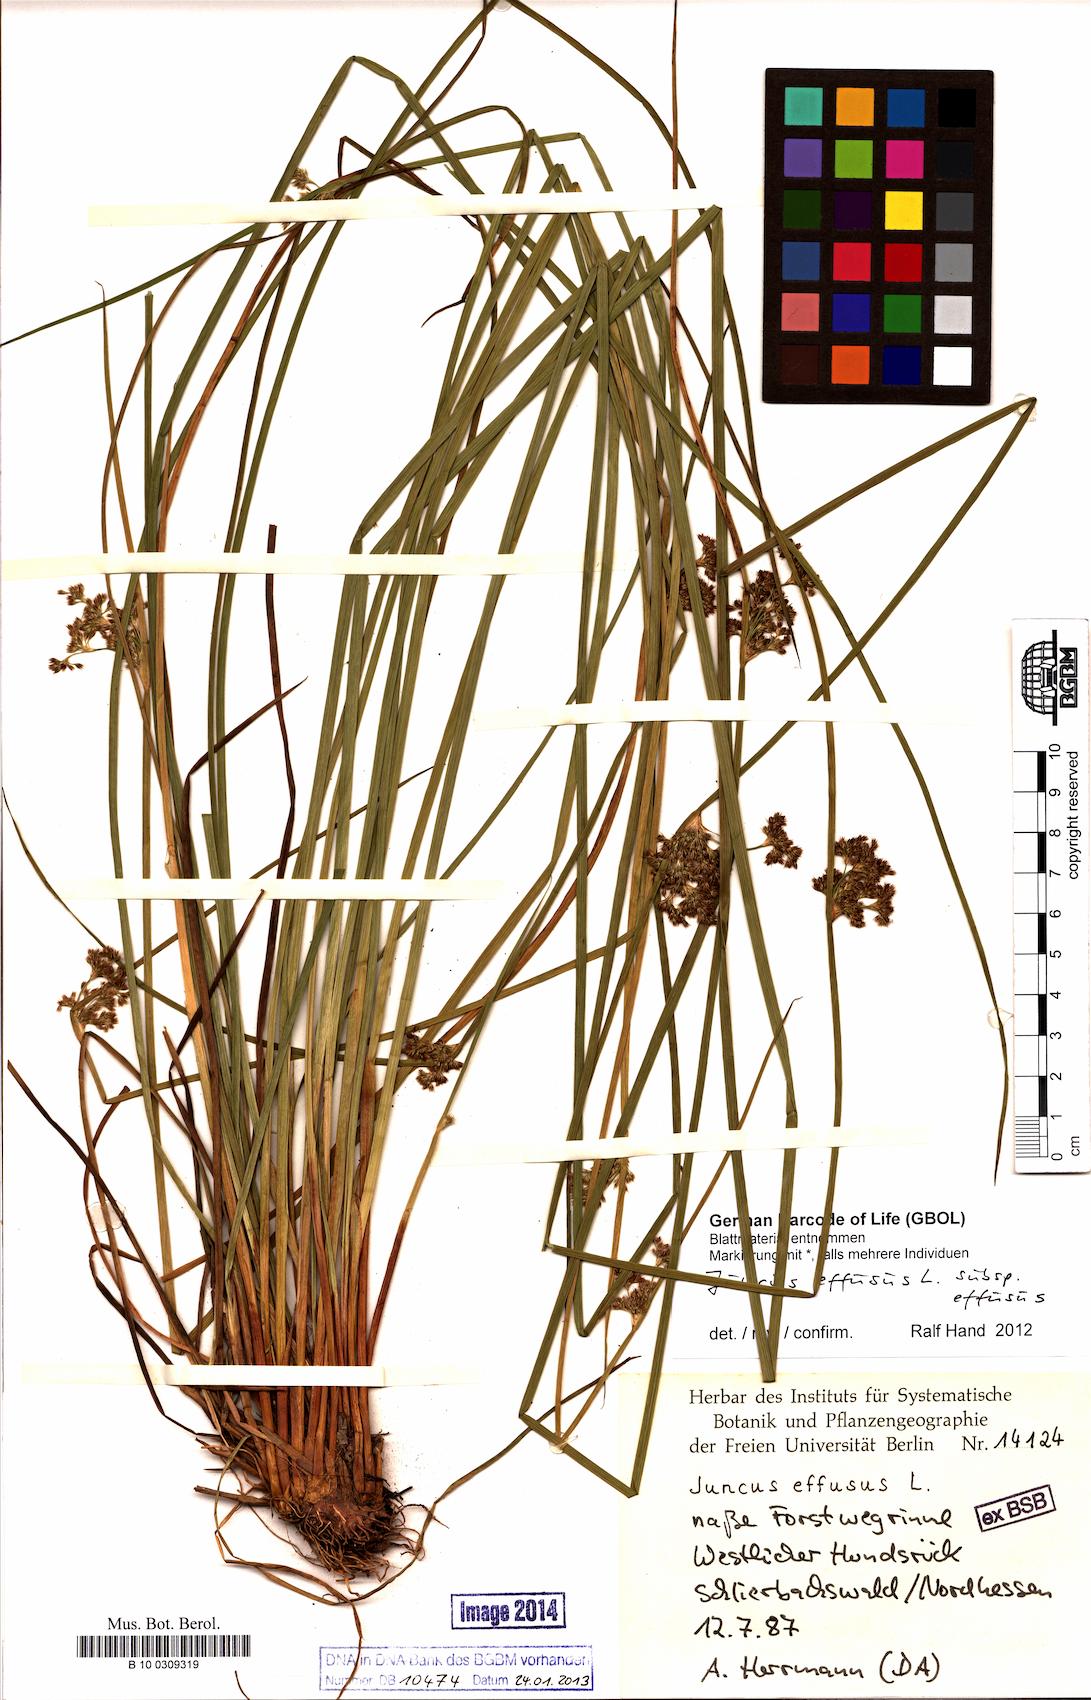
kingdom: Plantae
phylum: Tracheophyta
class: Liliopsida
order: Poales
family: Juncaceae
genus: Juncus
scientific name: Juncus effusus
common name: Soft rush
